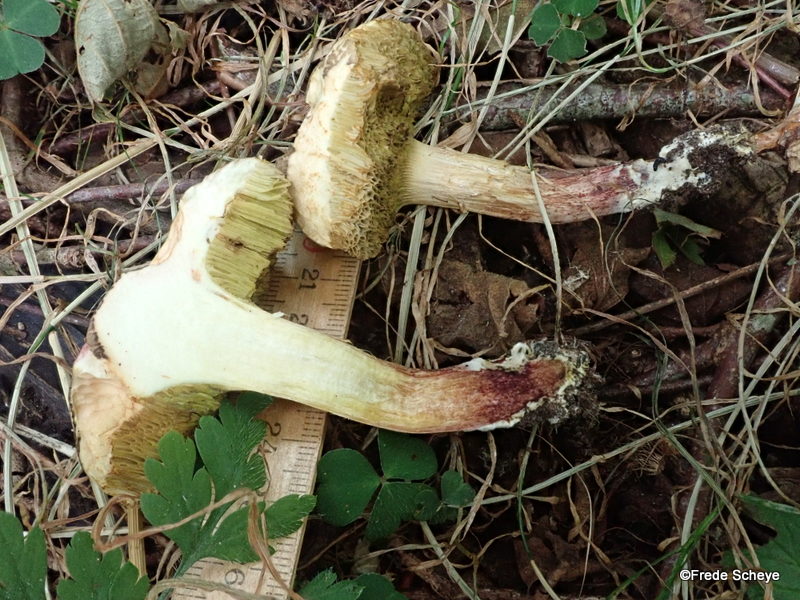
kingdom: Fungi
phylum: Basidiomycota
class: Agaricomycetes
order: Boletales
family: Boletaceae
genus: Xerocomellus
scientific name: Xerocomellus chrysenteron
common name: rødsprukken rørhat
